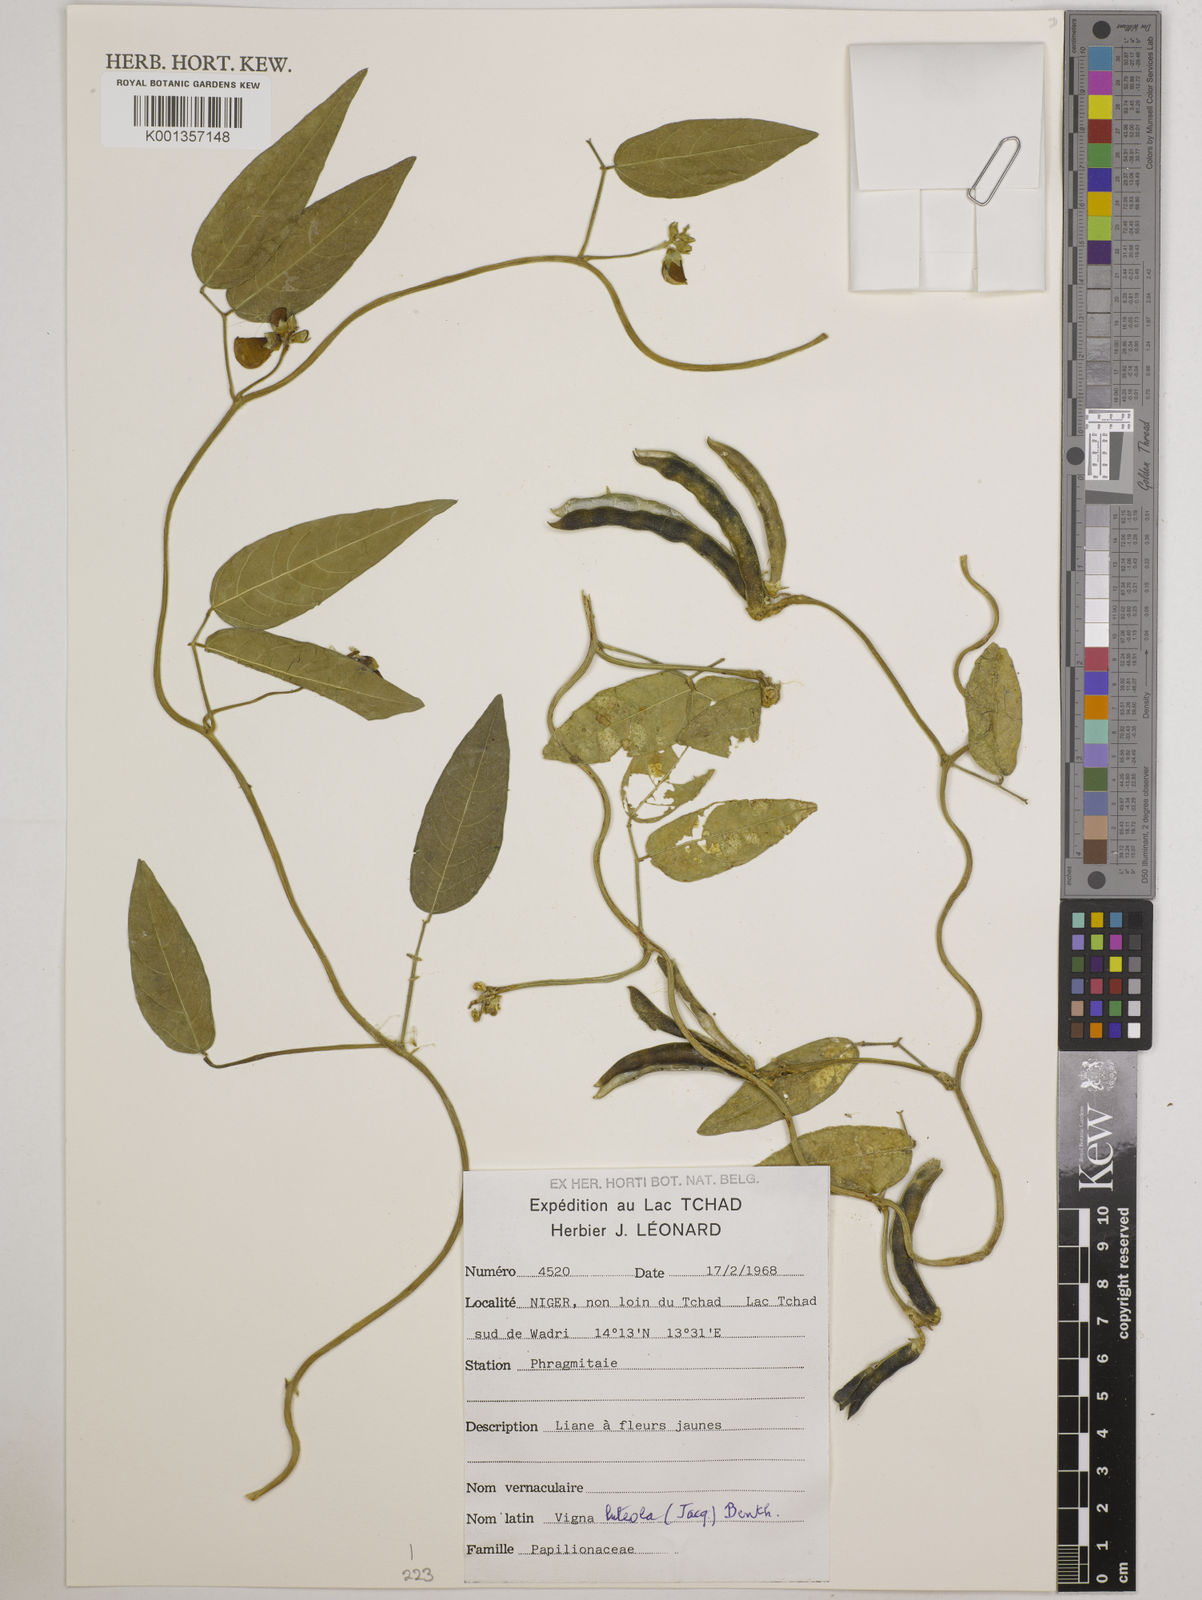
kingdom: Plantae
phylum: Tracheophyta
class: Magnoliopsida
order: Fabales
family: Fabaceae
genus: Vigna
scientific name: Vigna luteola
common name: Hairypod cowpea
